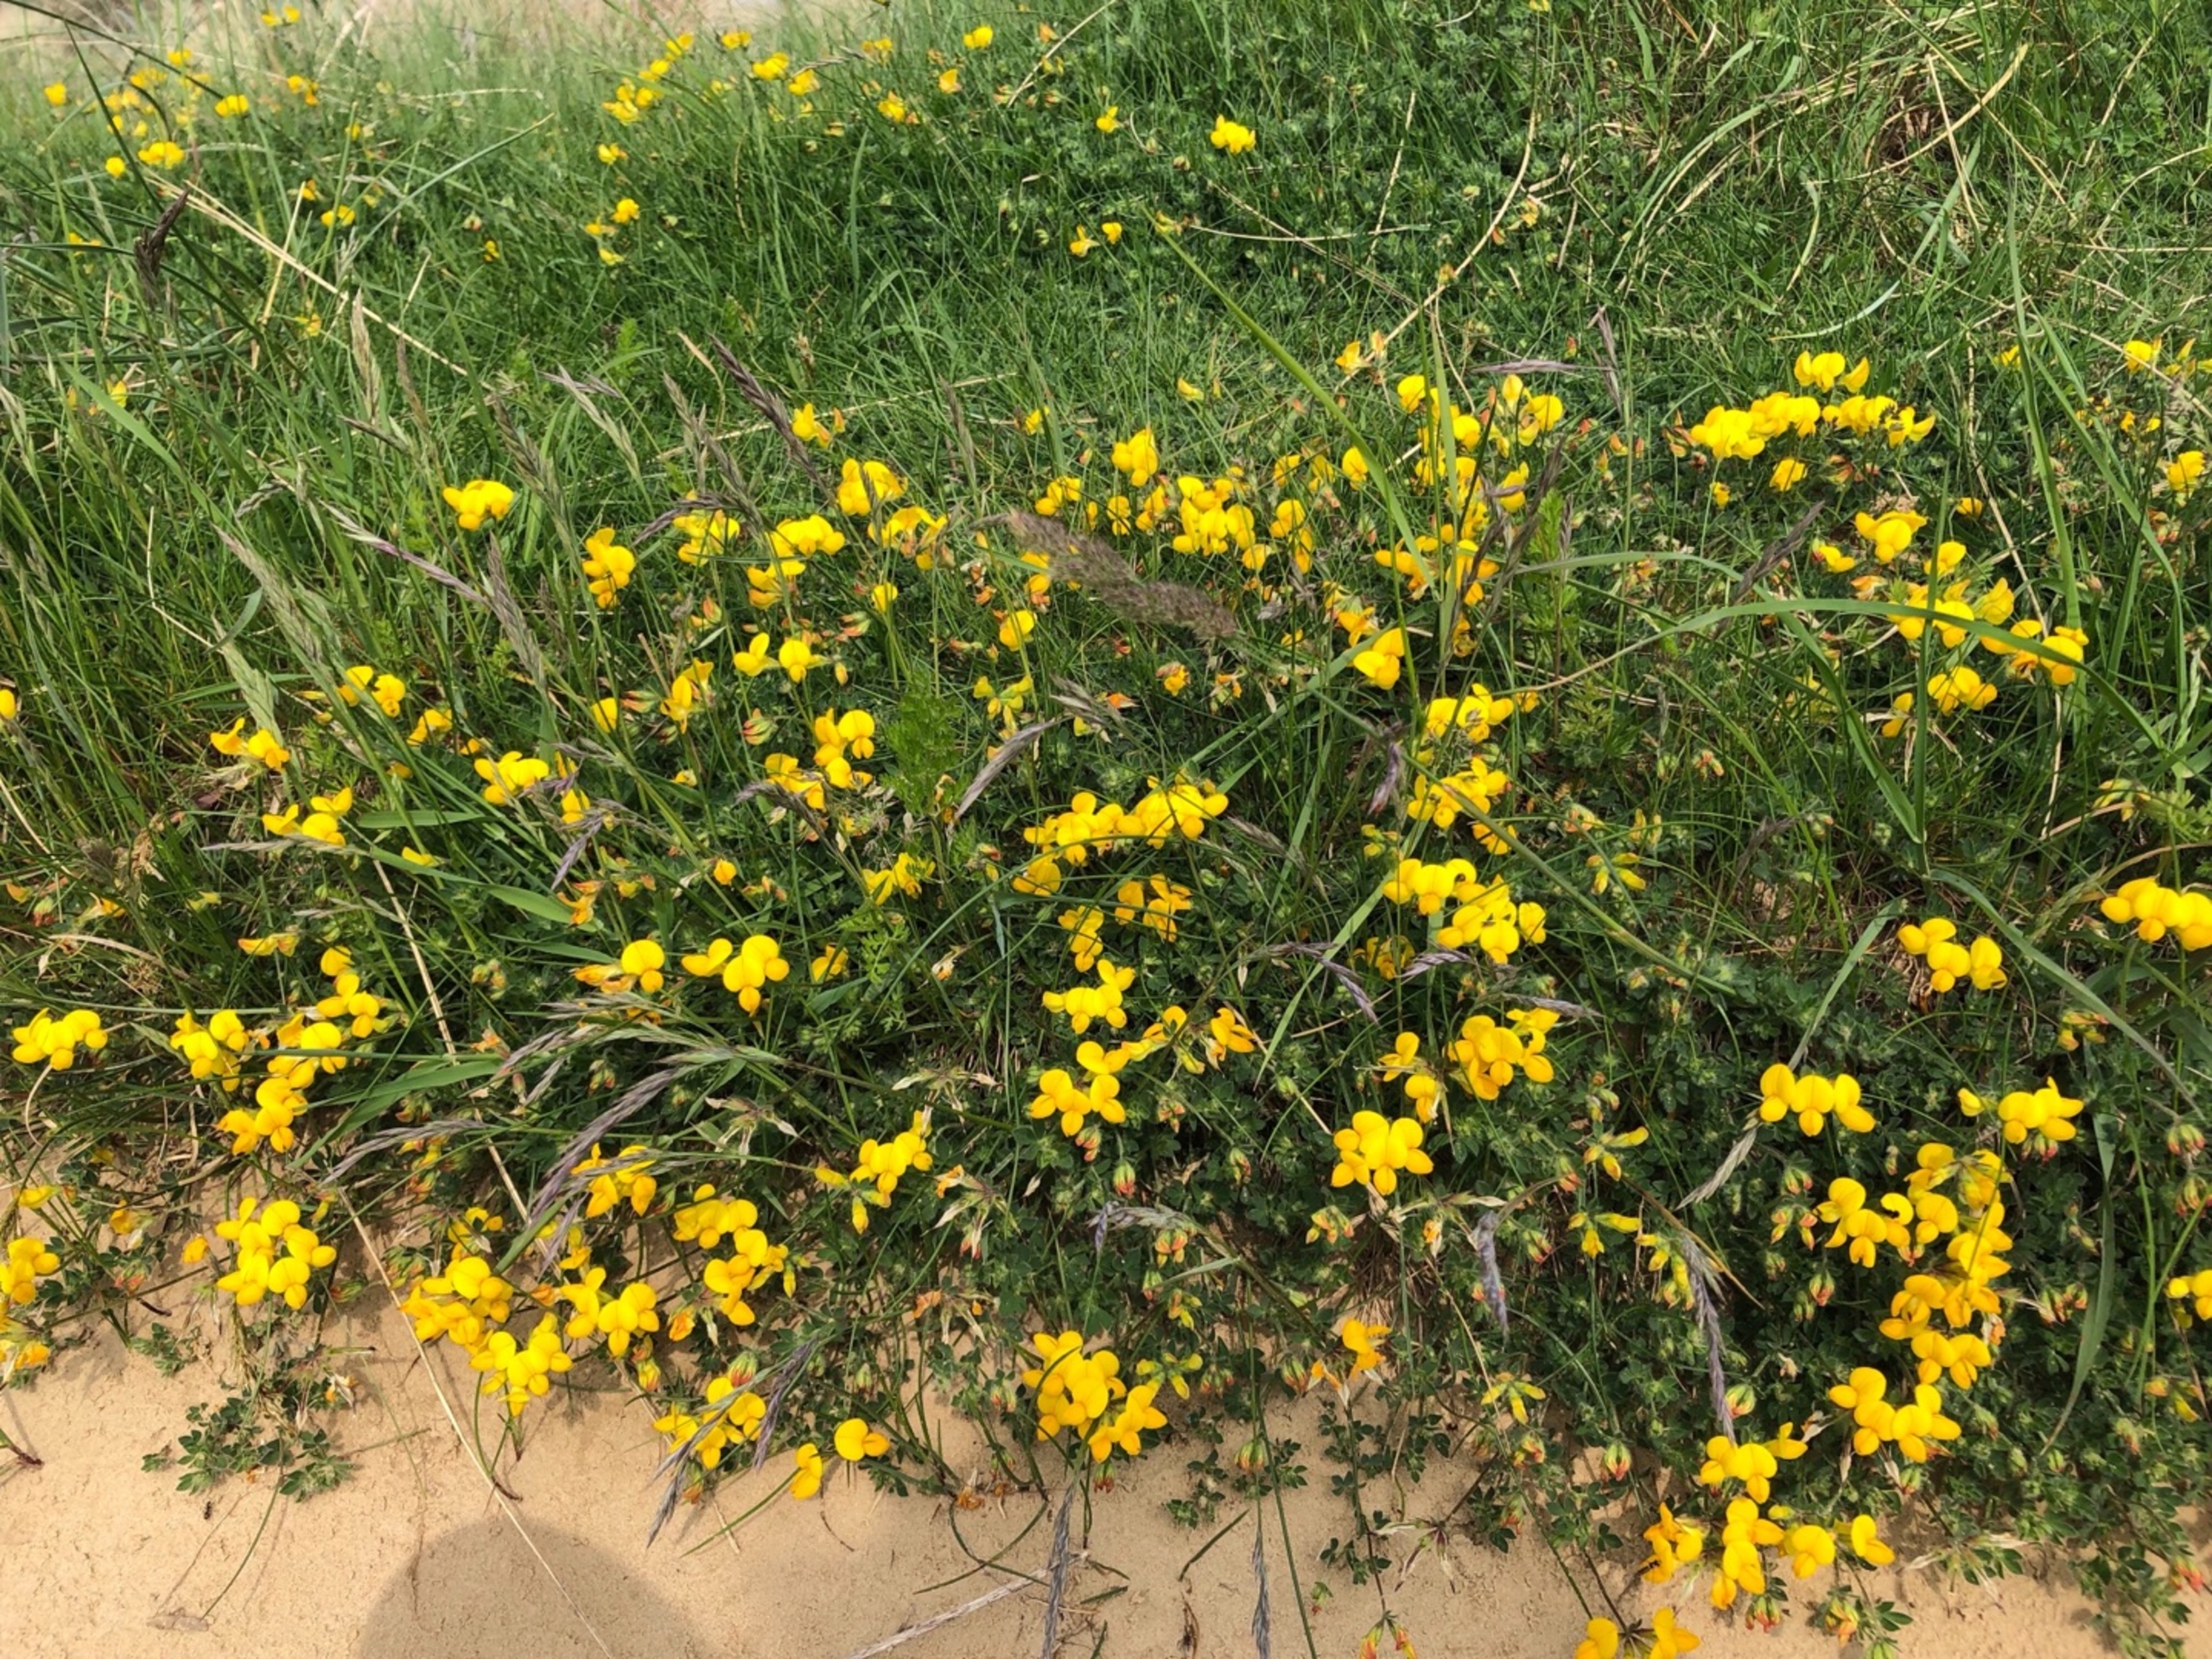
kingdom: Plantae
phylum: Tracheophyta
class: Magnoliopsida
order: Fabales
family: Fabaceae
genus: Lotus
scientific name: Lotus corniculatus
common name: Almindelig kællingetand
